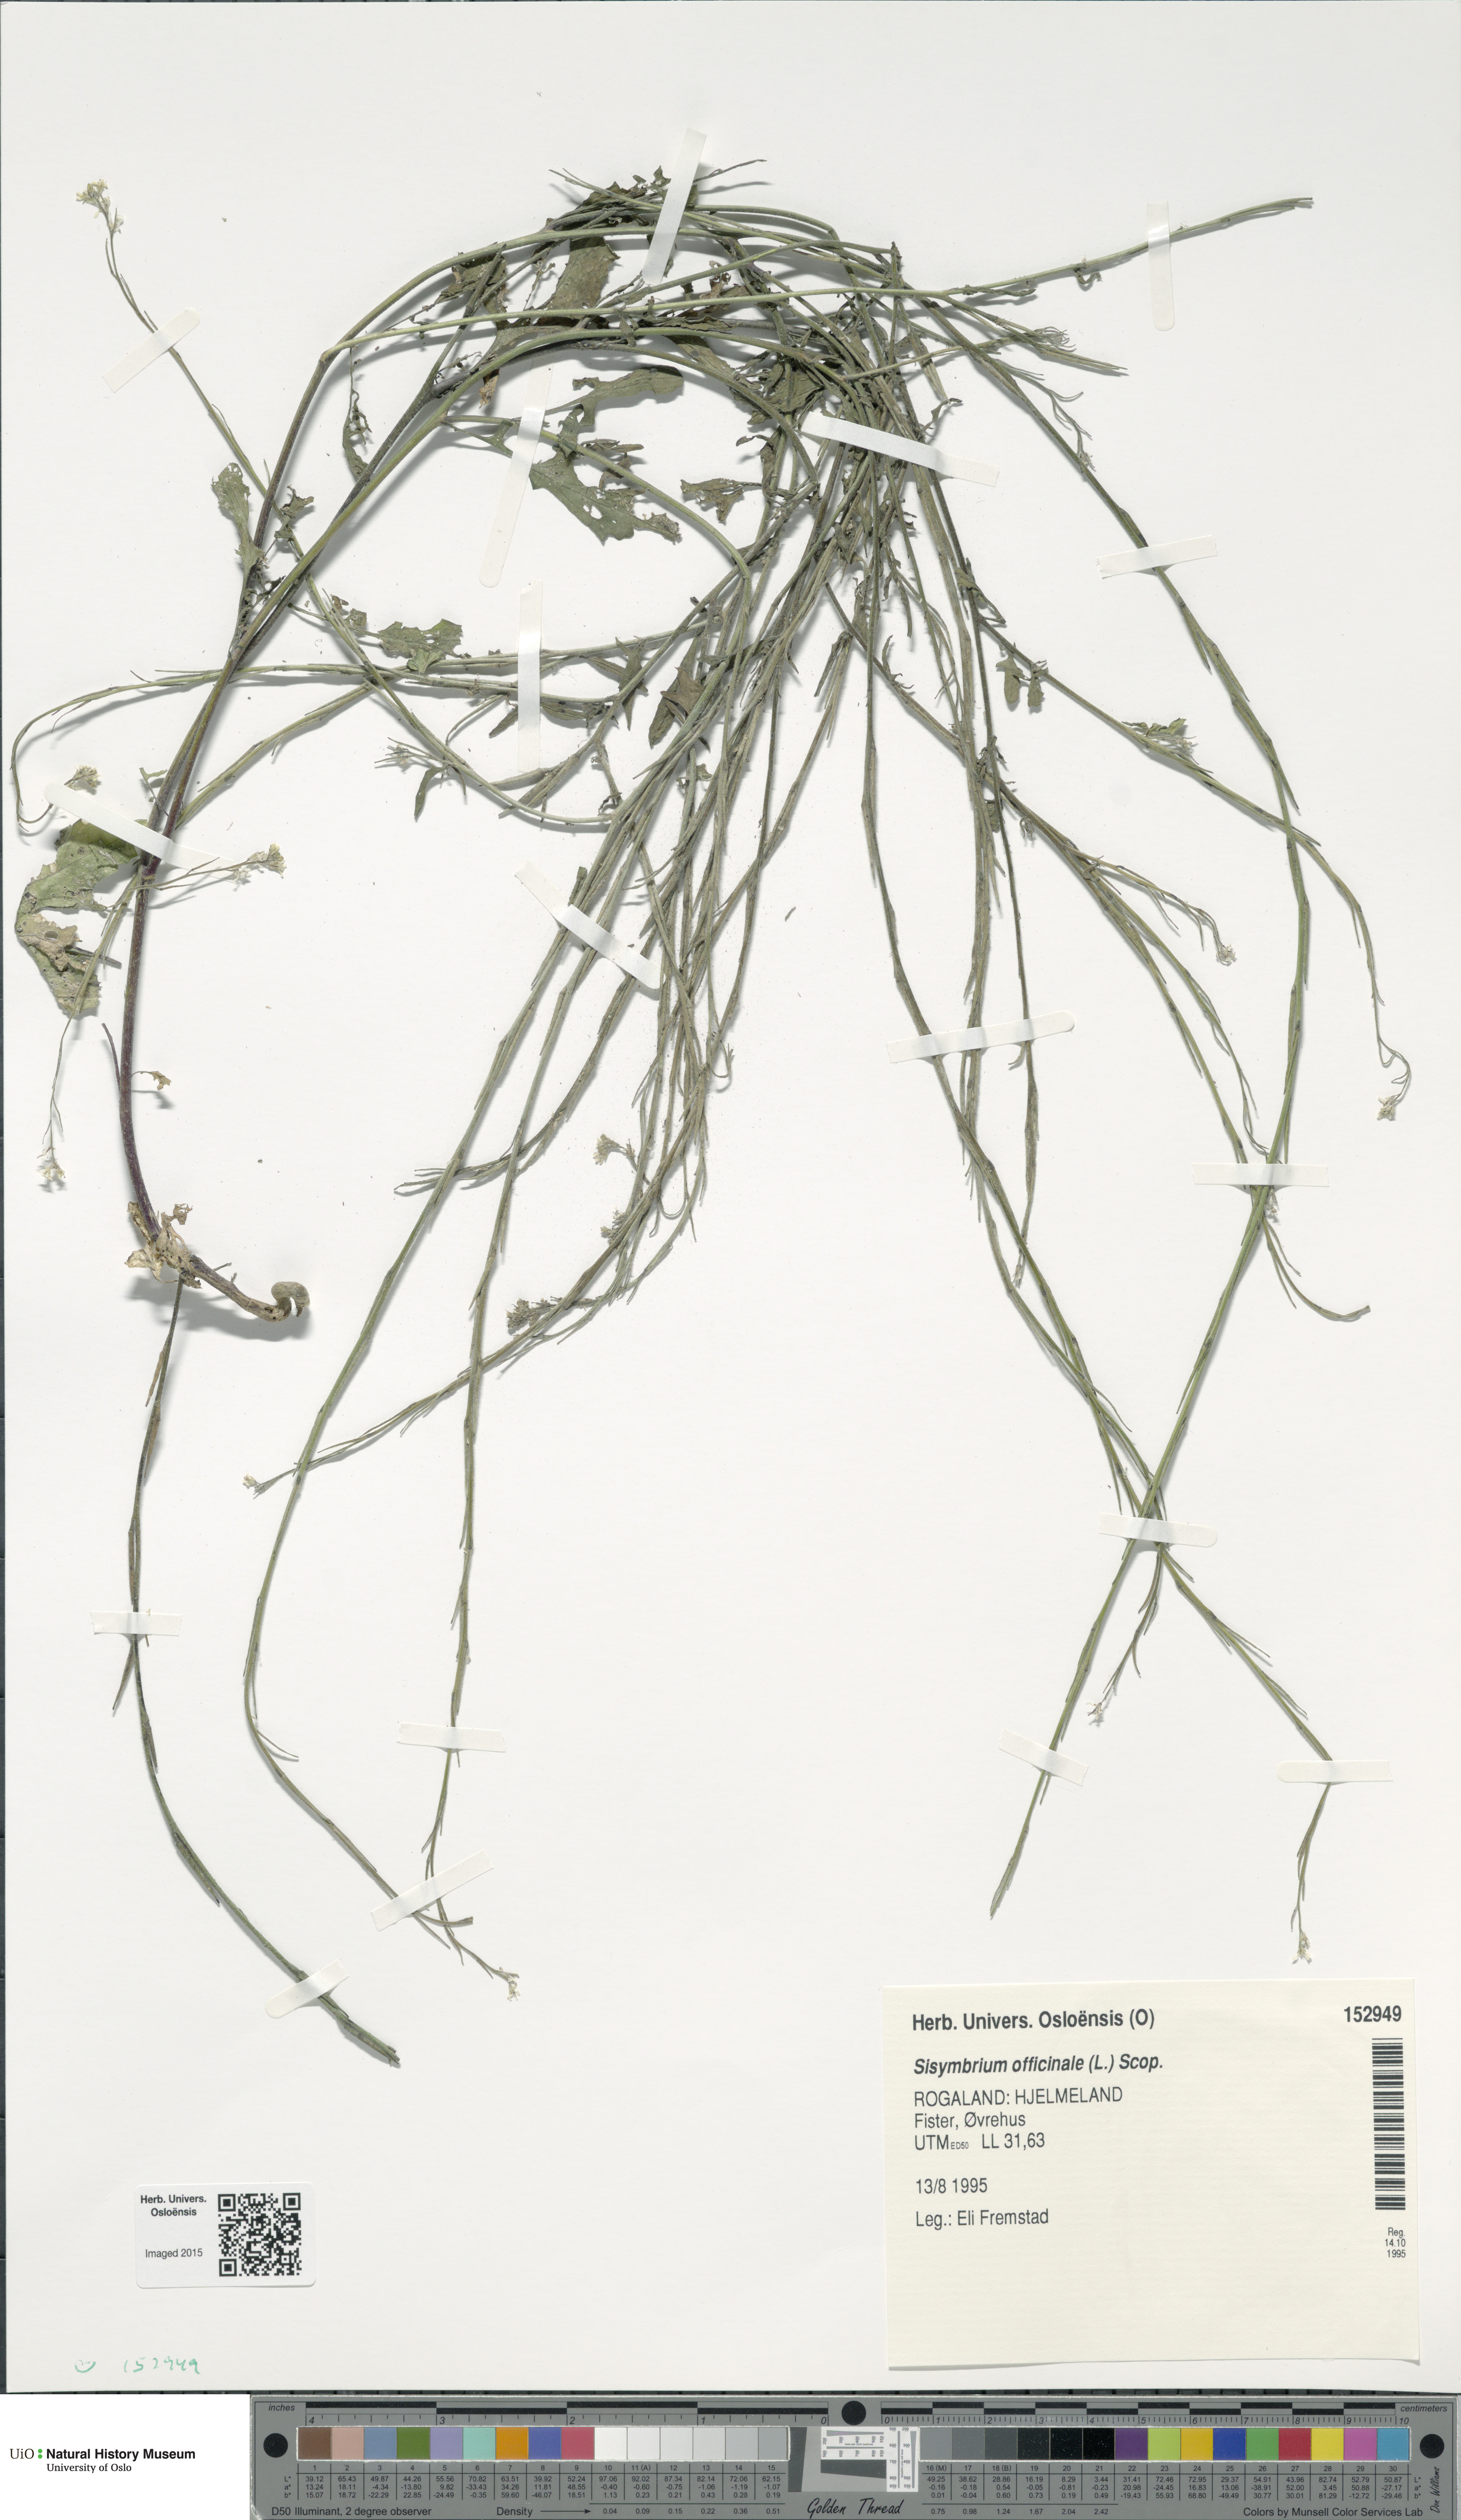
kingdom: Plantae
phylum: Tracheophyta
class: Magnoliopsida
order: Brassicales
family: Brassicaceae
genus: Sisymbrium
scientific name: Sisymbrium officinale
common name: Hedge mustard
